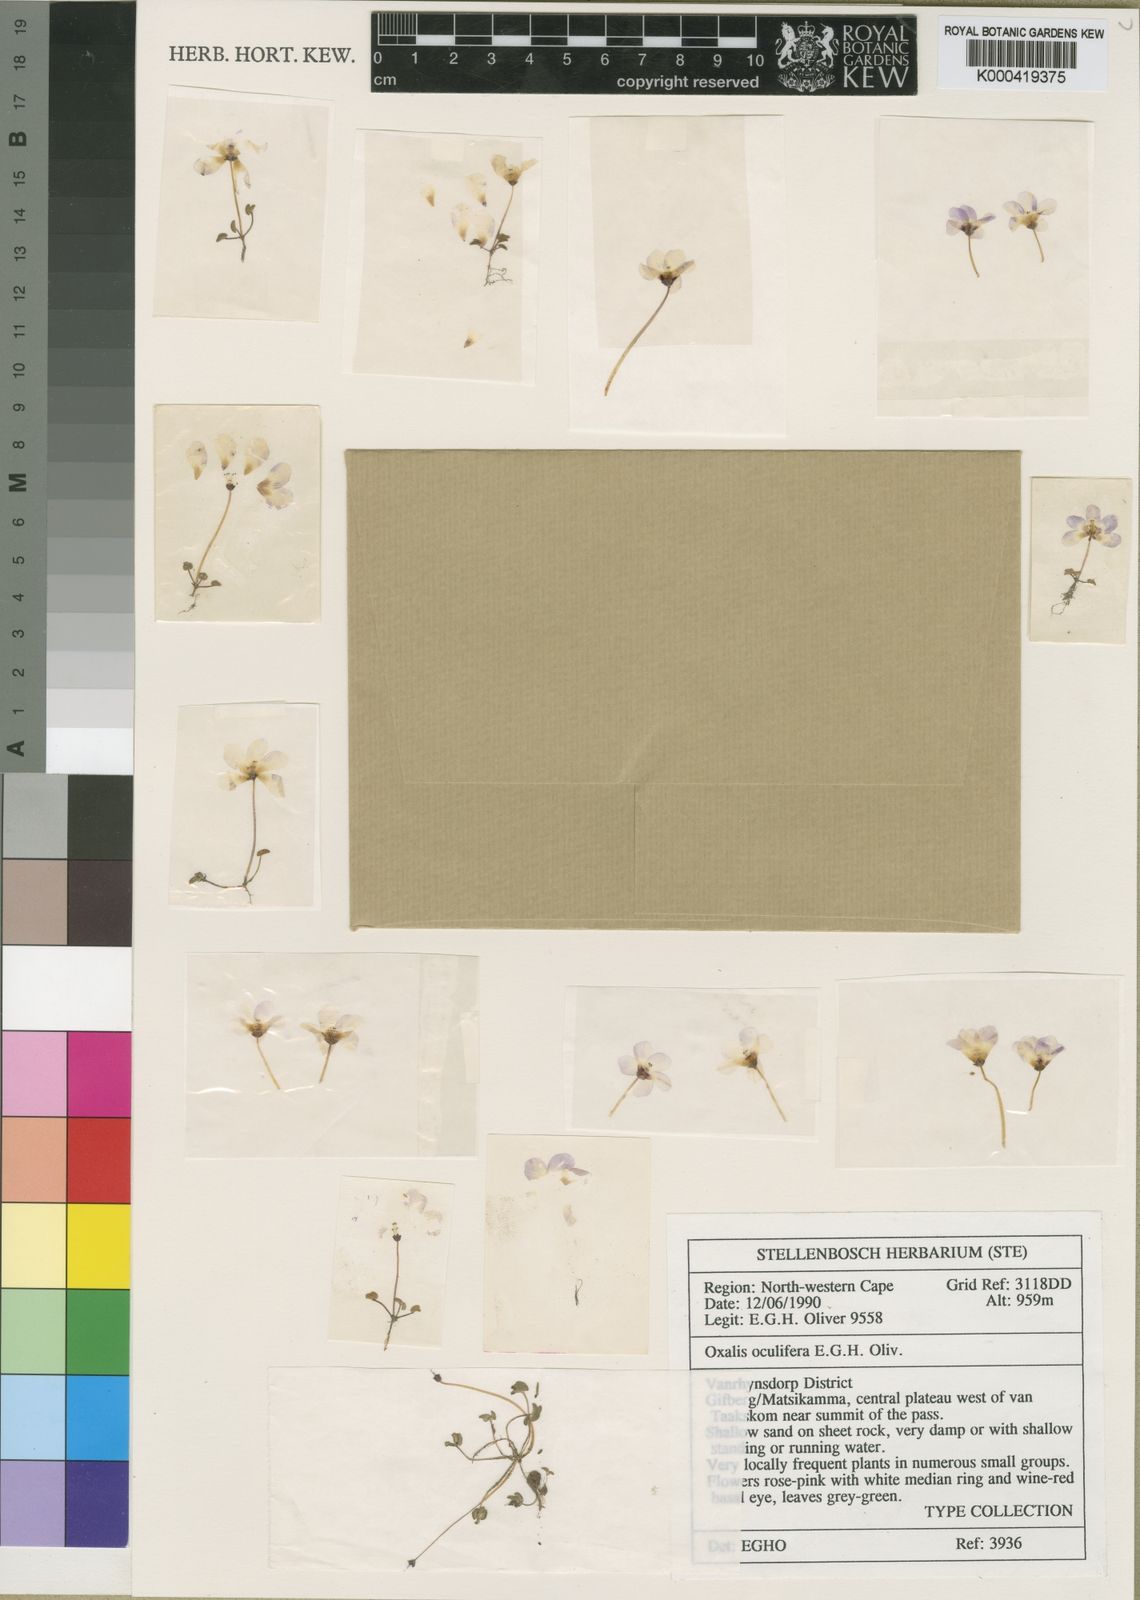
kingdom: Plantae
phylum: Tracheophyta
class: Magnoliopsida
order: Oxalidales
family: Oxalidaceae
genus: Oxalis
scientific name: Oxalis oculifera
